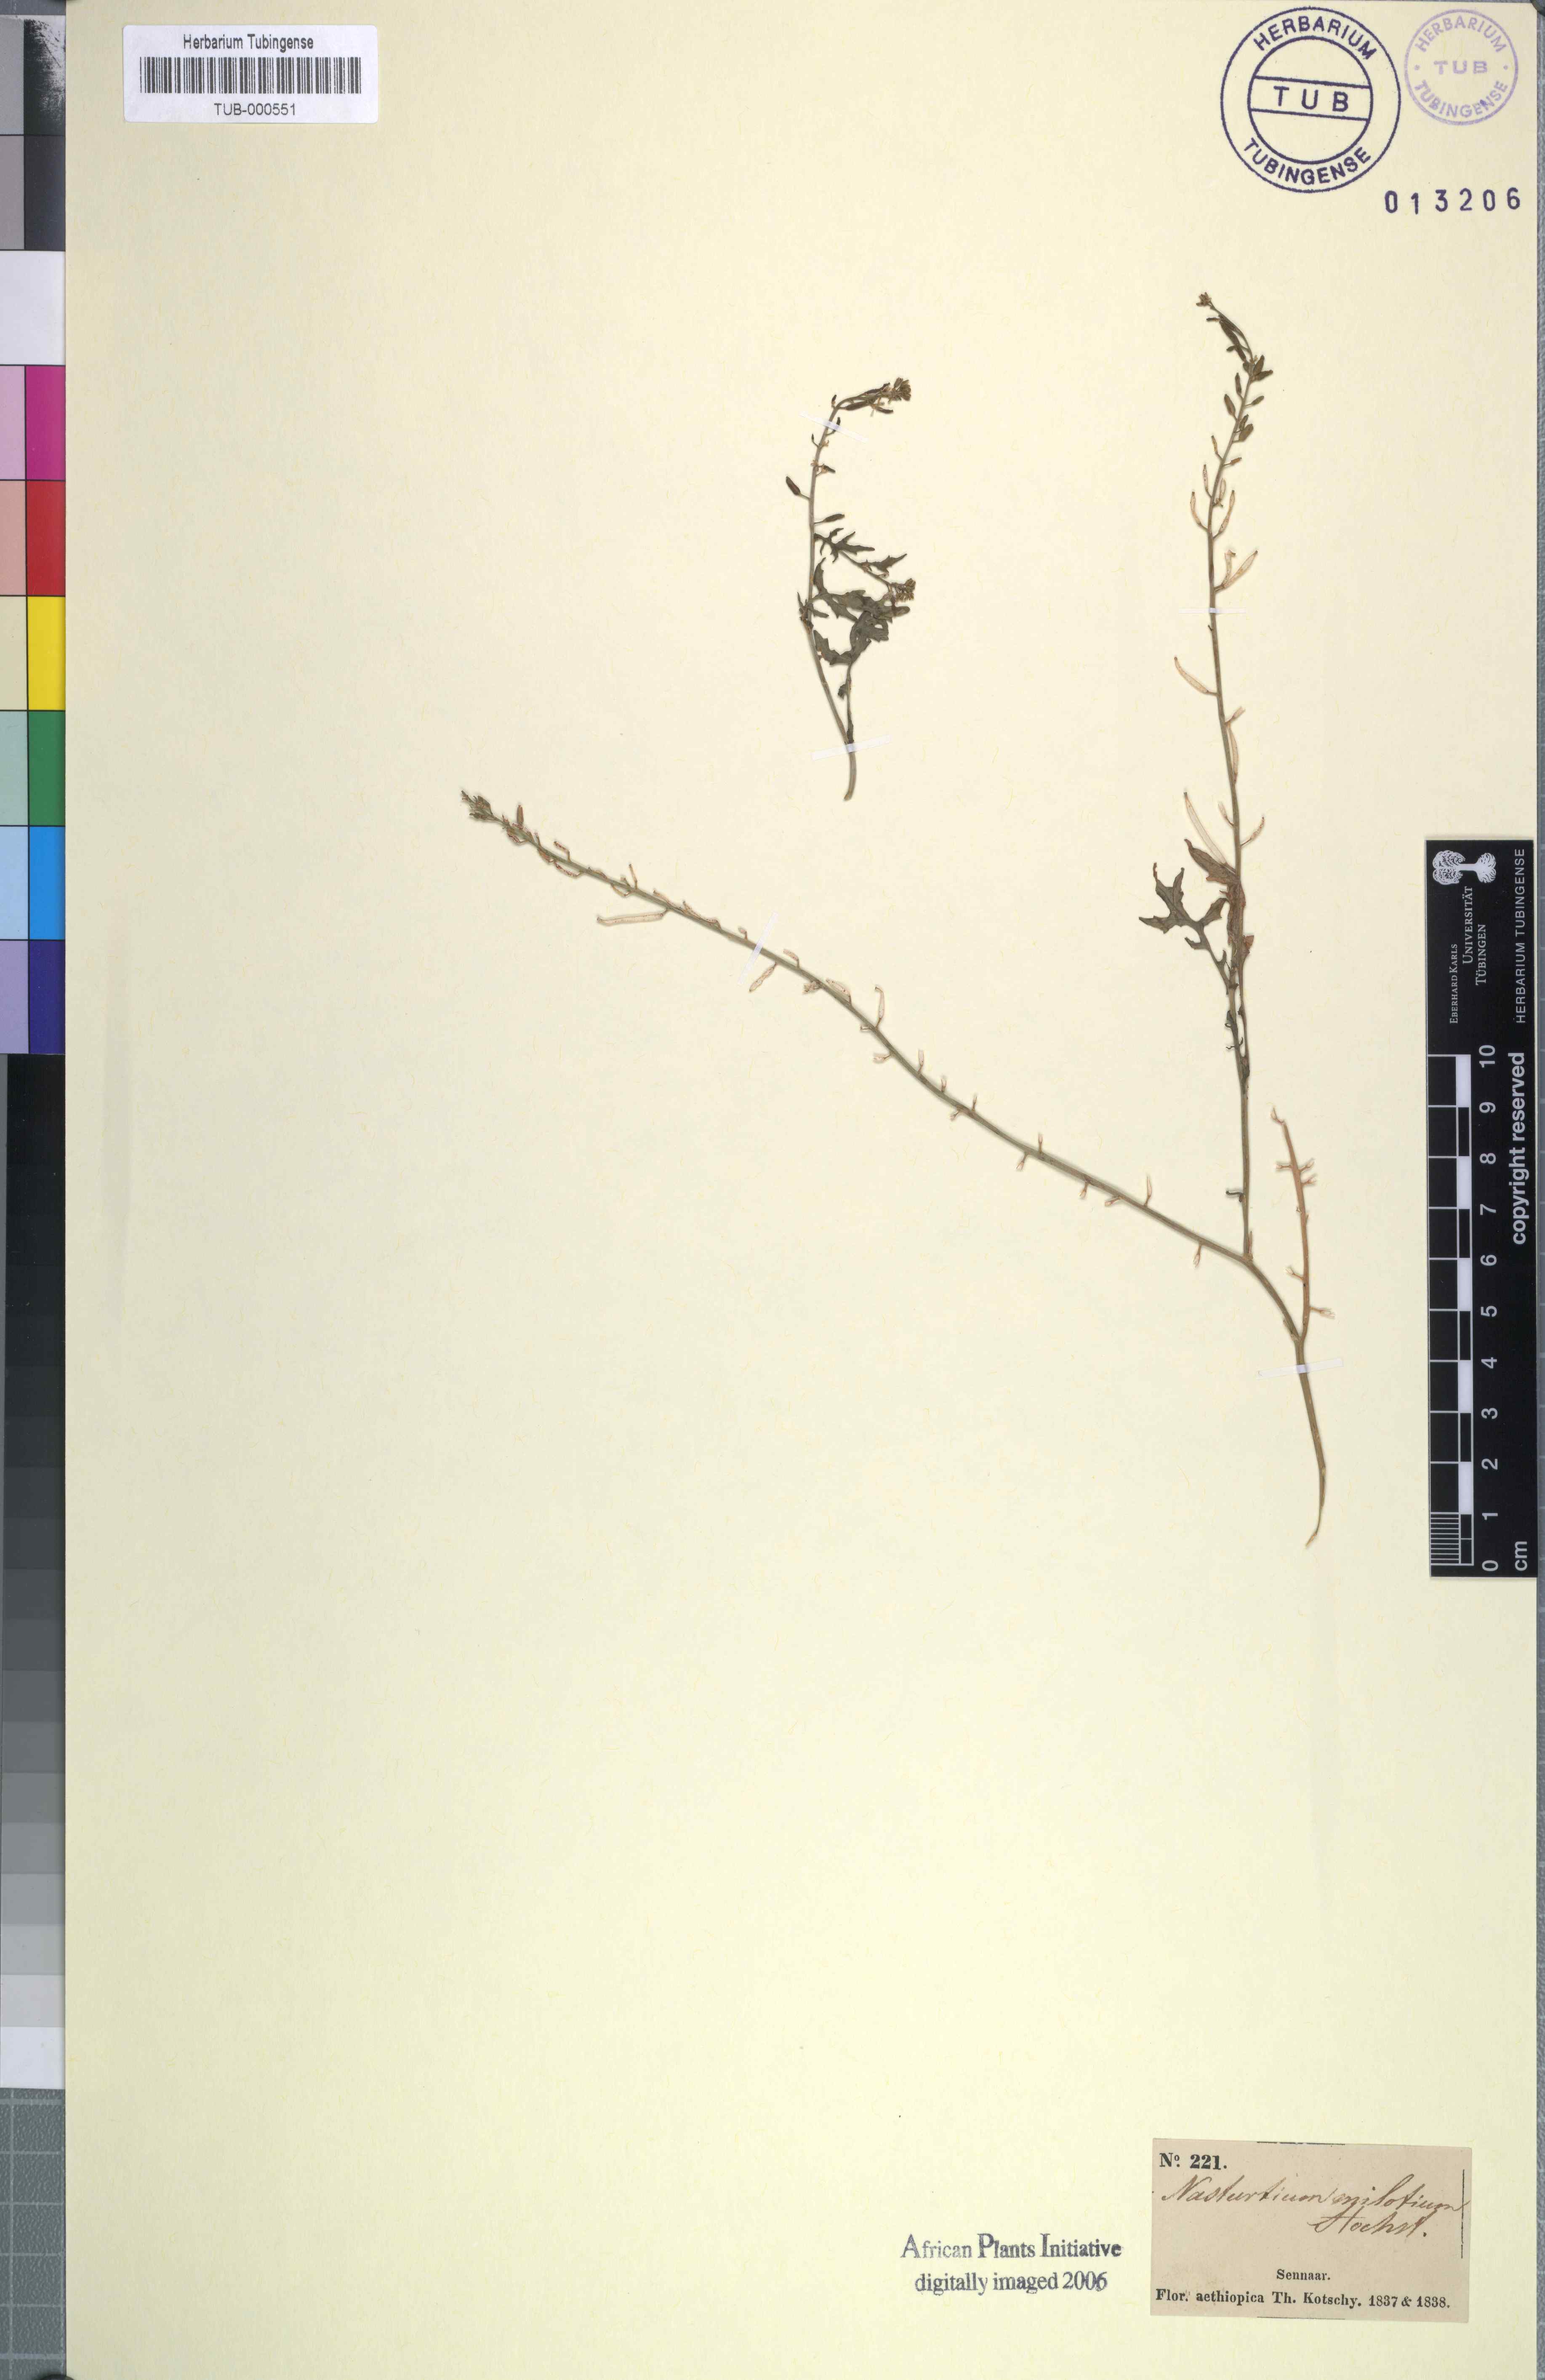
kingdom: Plantae
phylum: Tracheophyta
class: Magnoliopsida
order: Brassicales
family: Brassicaceae
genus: Rorippa
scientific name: Rorippa micrantha
